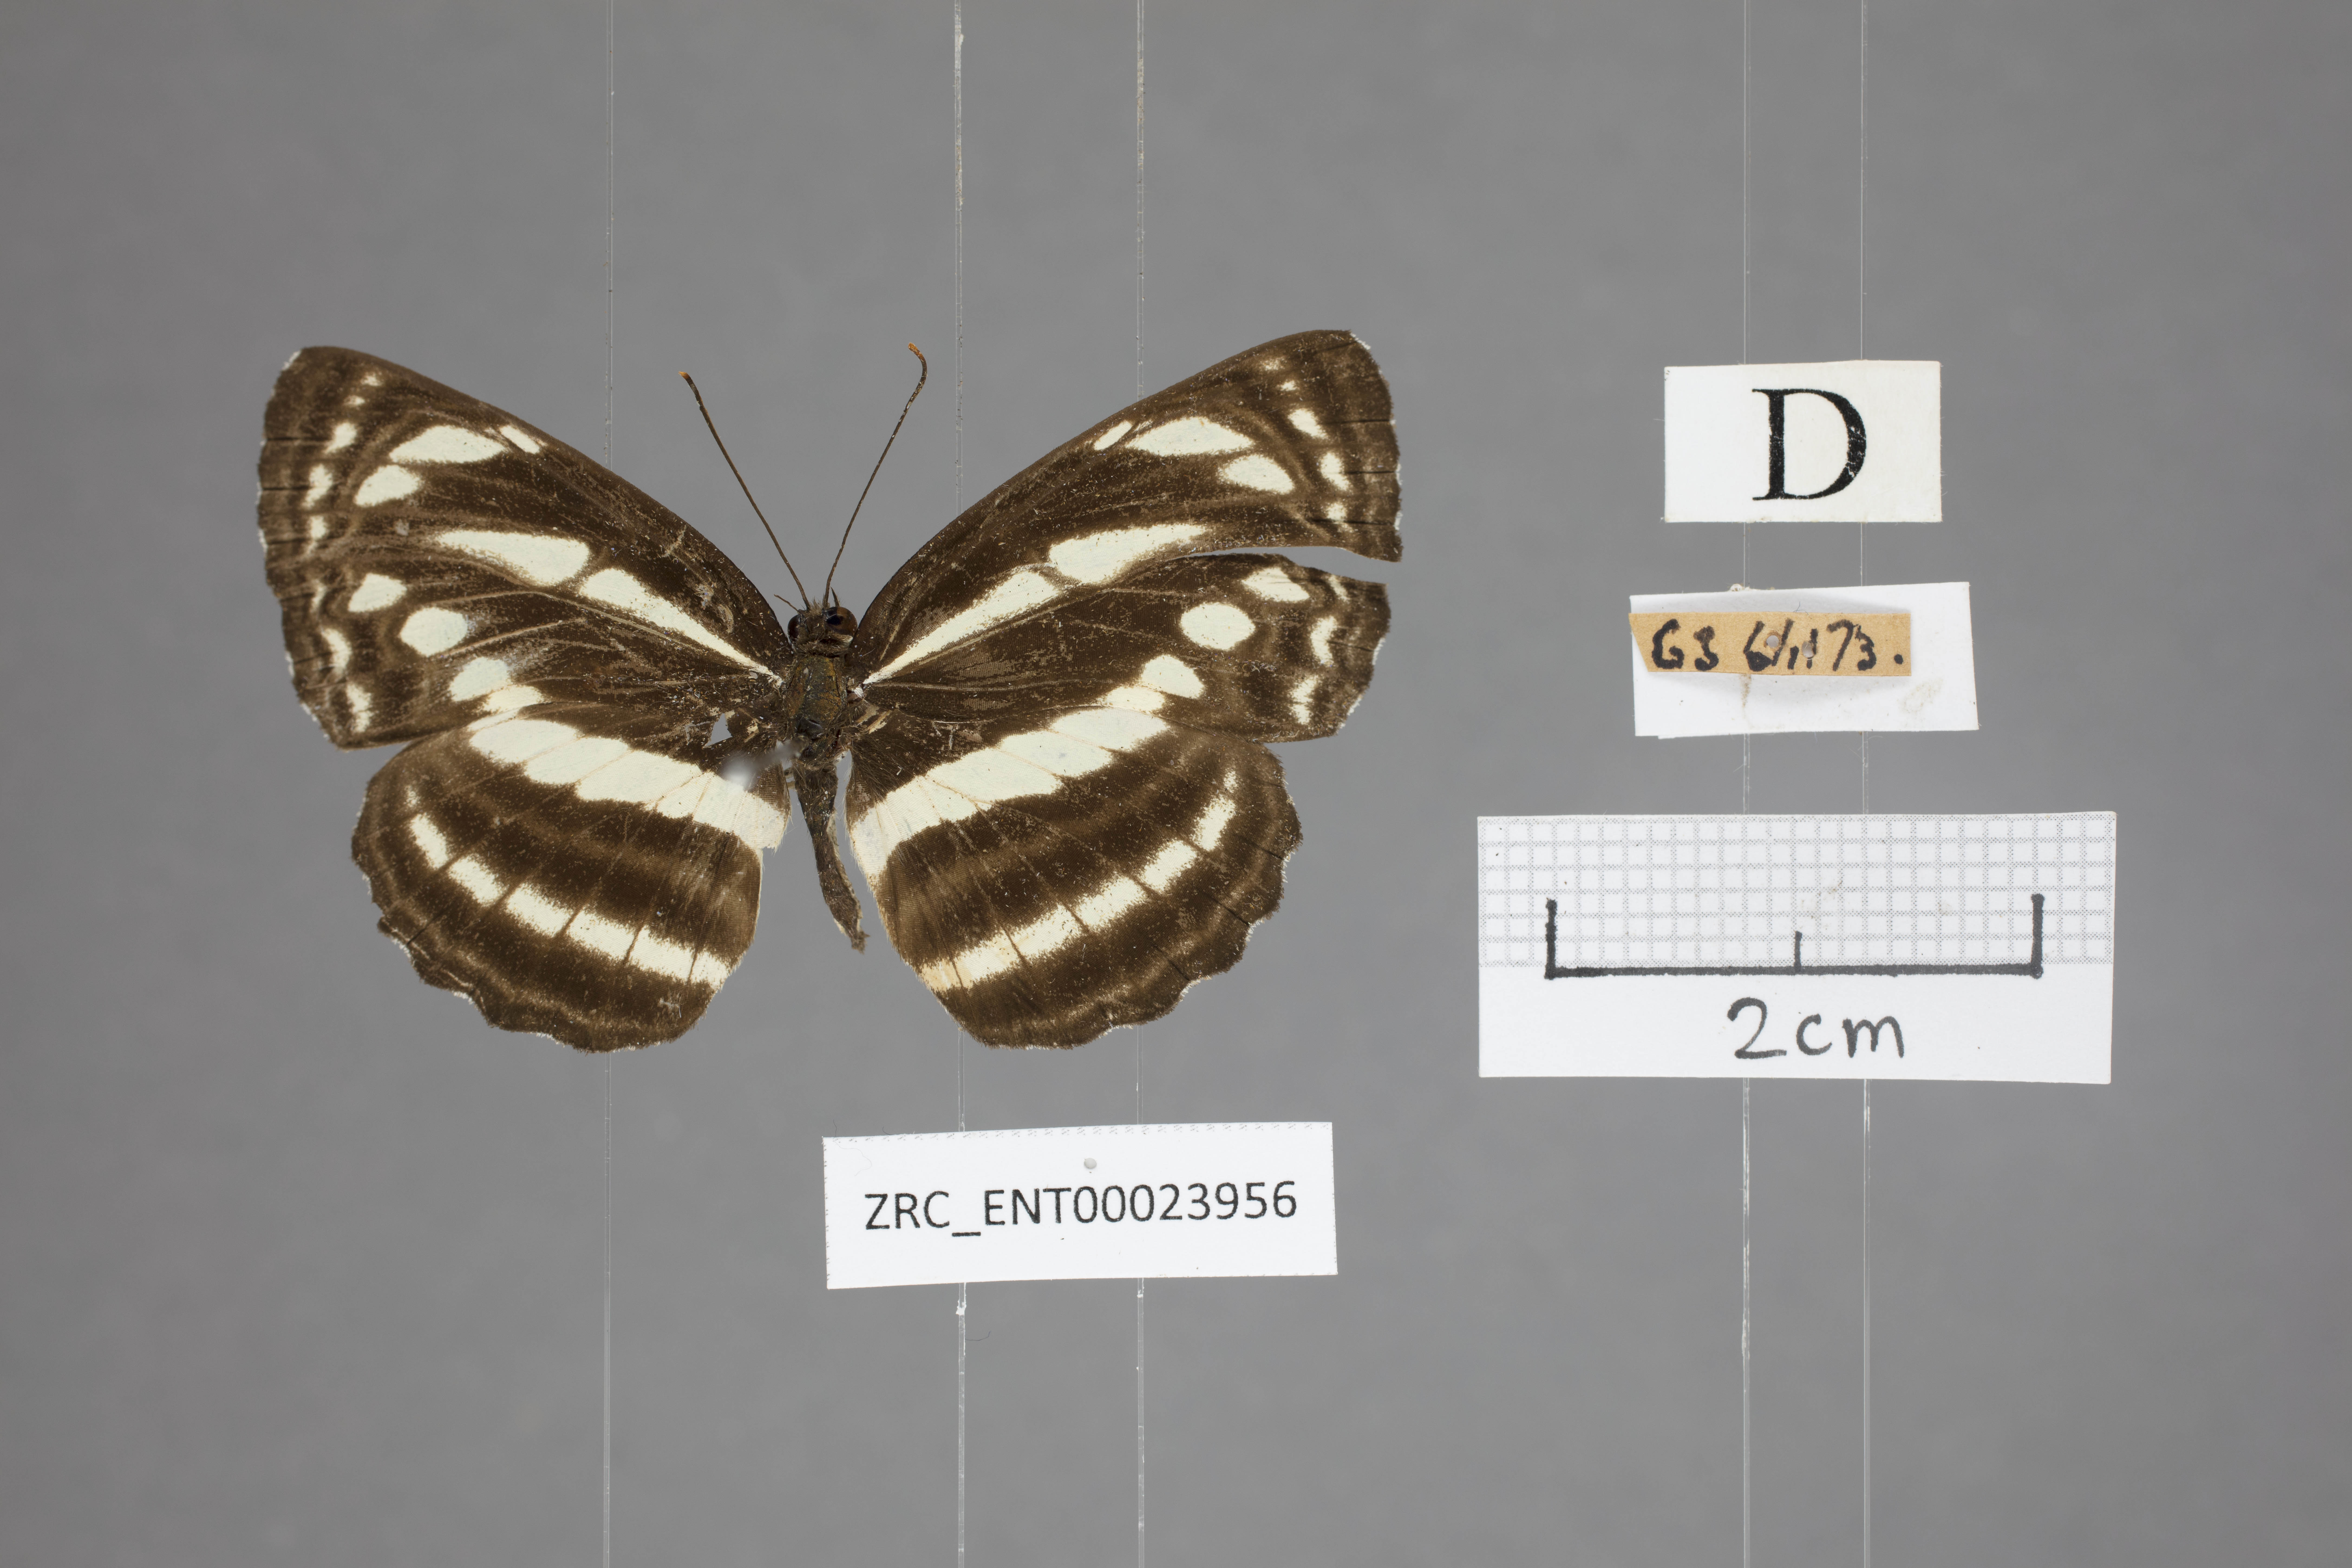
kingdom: Animalia
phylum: Arthropoda
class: Insecta
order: Lepidoptera
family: Nymphalidae
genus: Neptis
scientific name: Neptis clinia
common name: Southern sullied sailer
